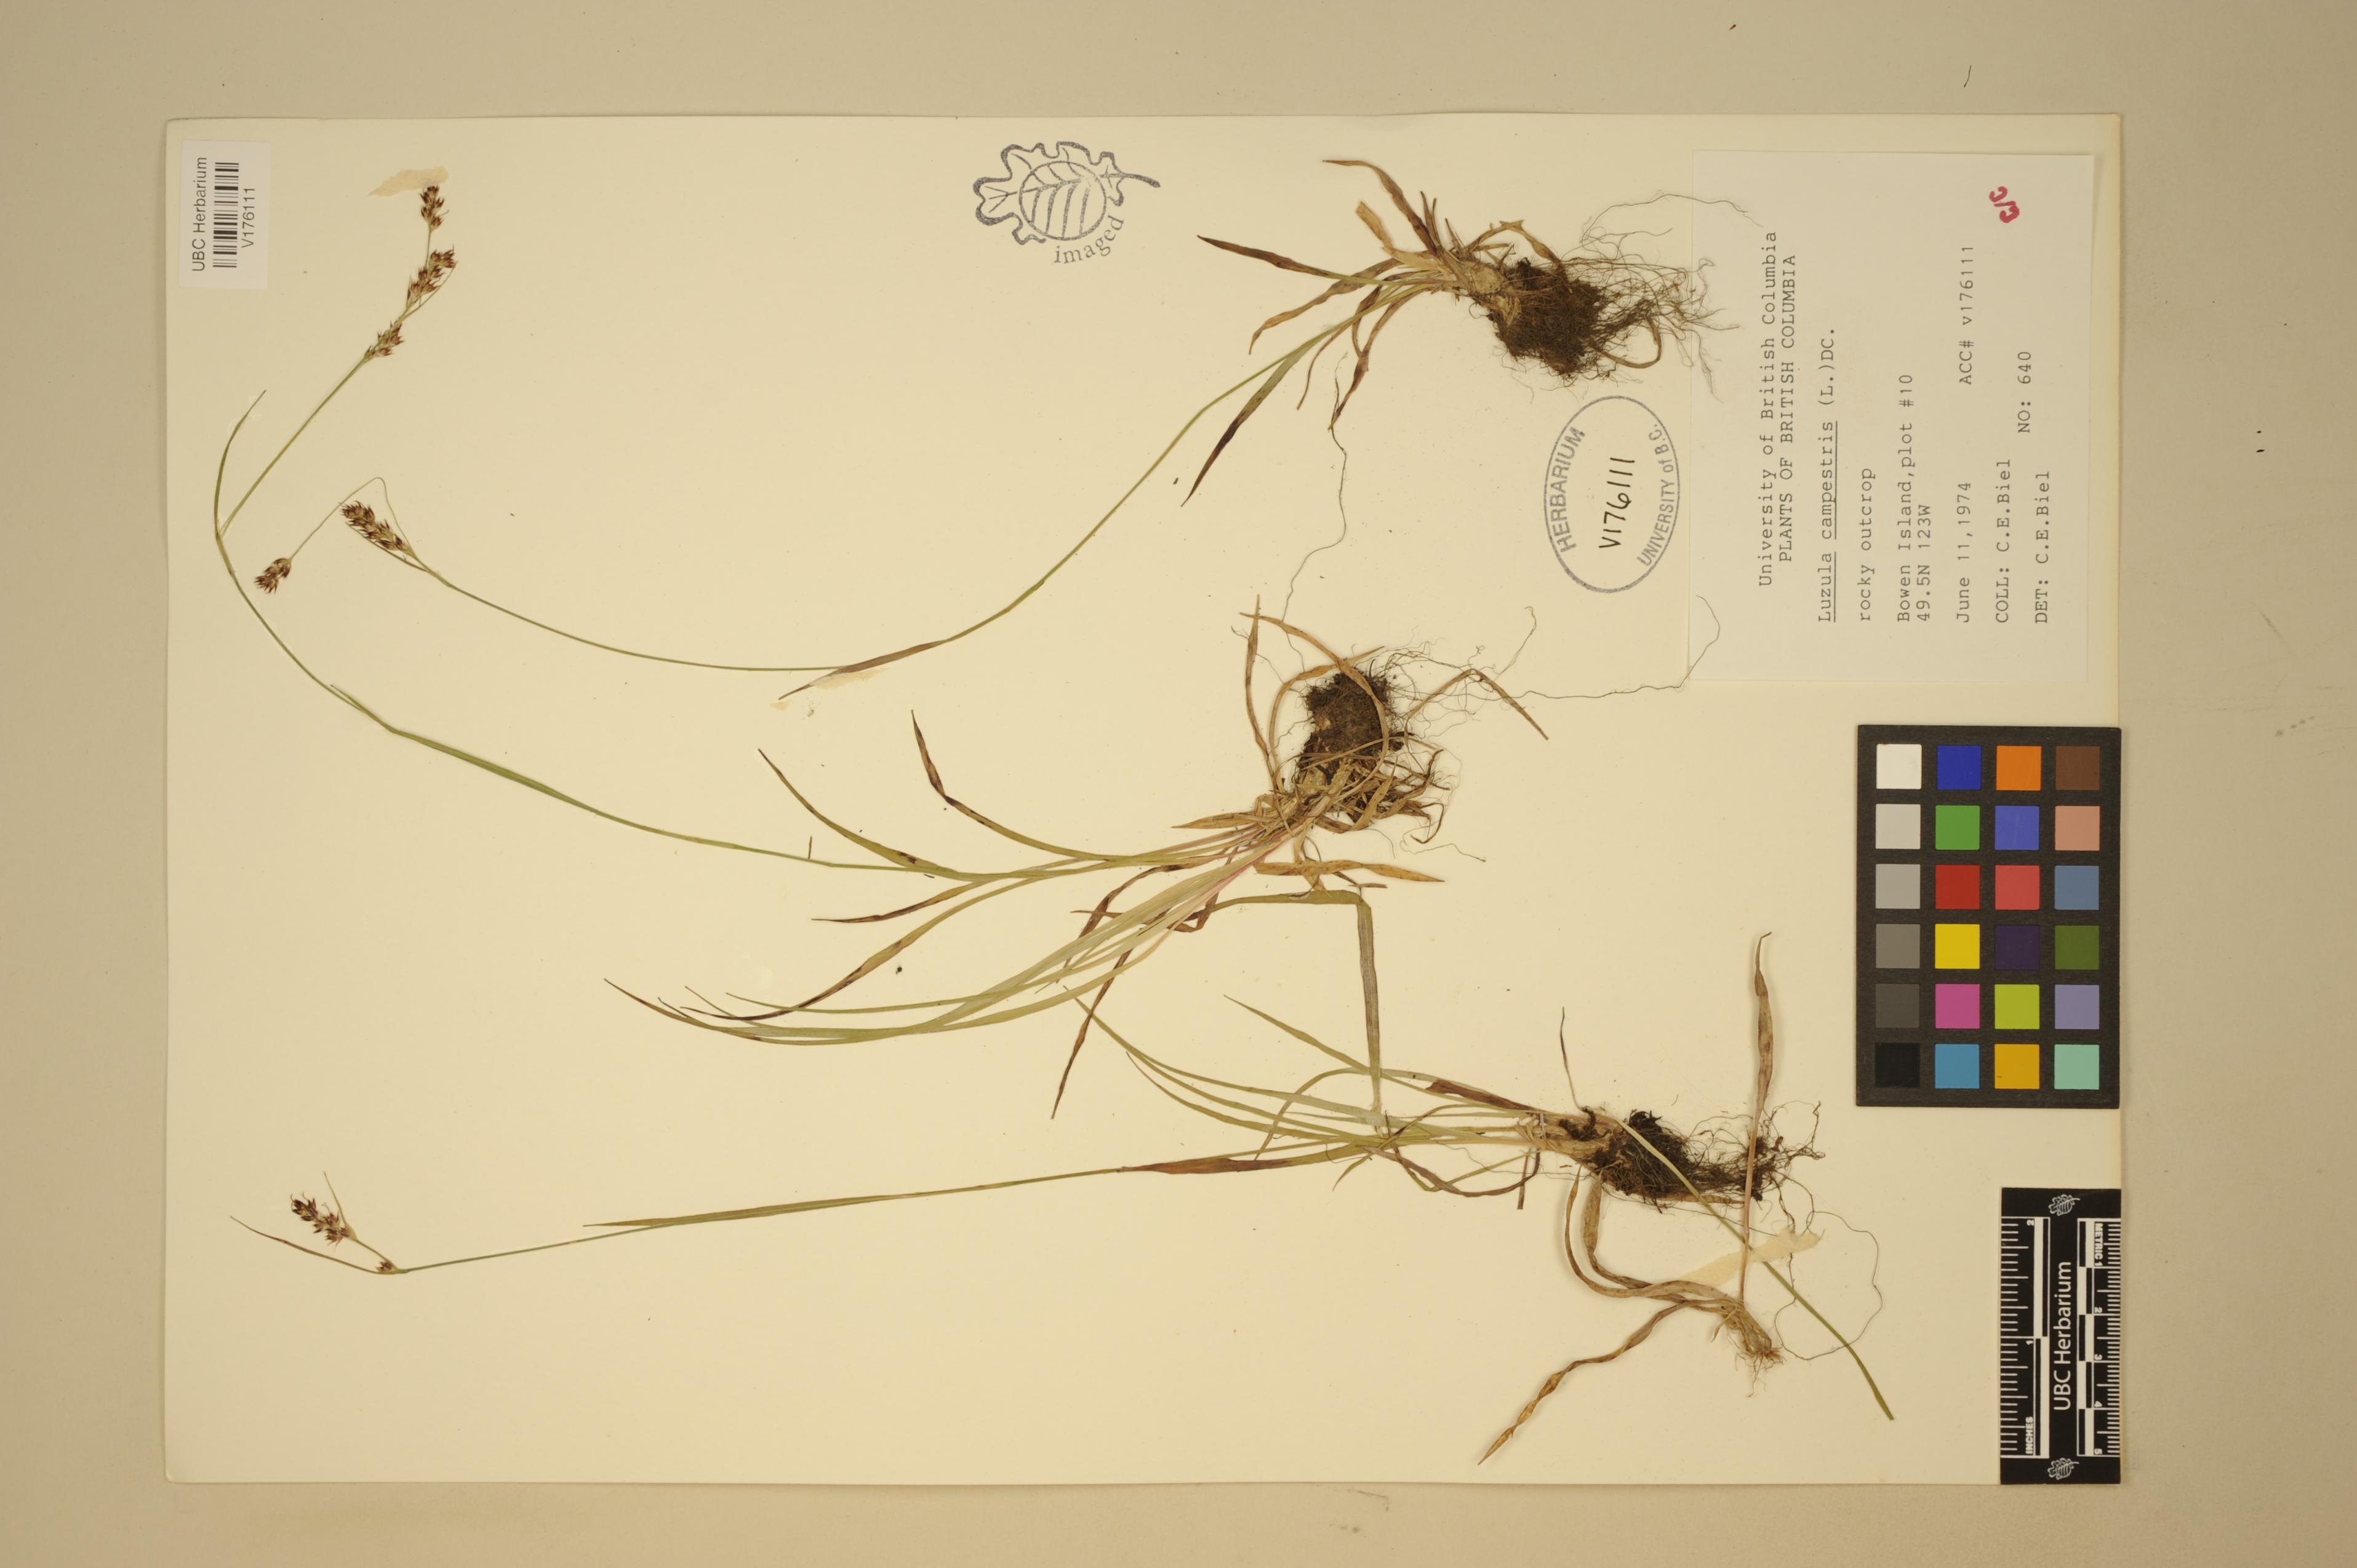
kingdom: Plantae
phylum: Tracheophyta
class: Liliopsida
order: Poales
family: Juncaceae
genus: Luzula
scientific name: Luzula macrantha
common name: Large-anthered woodrush
